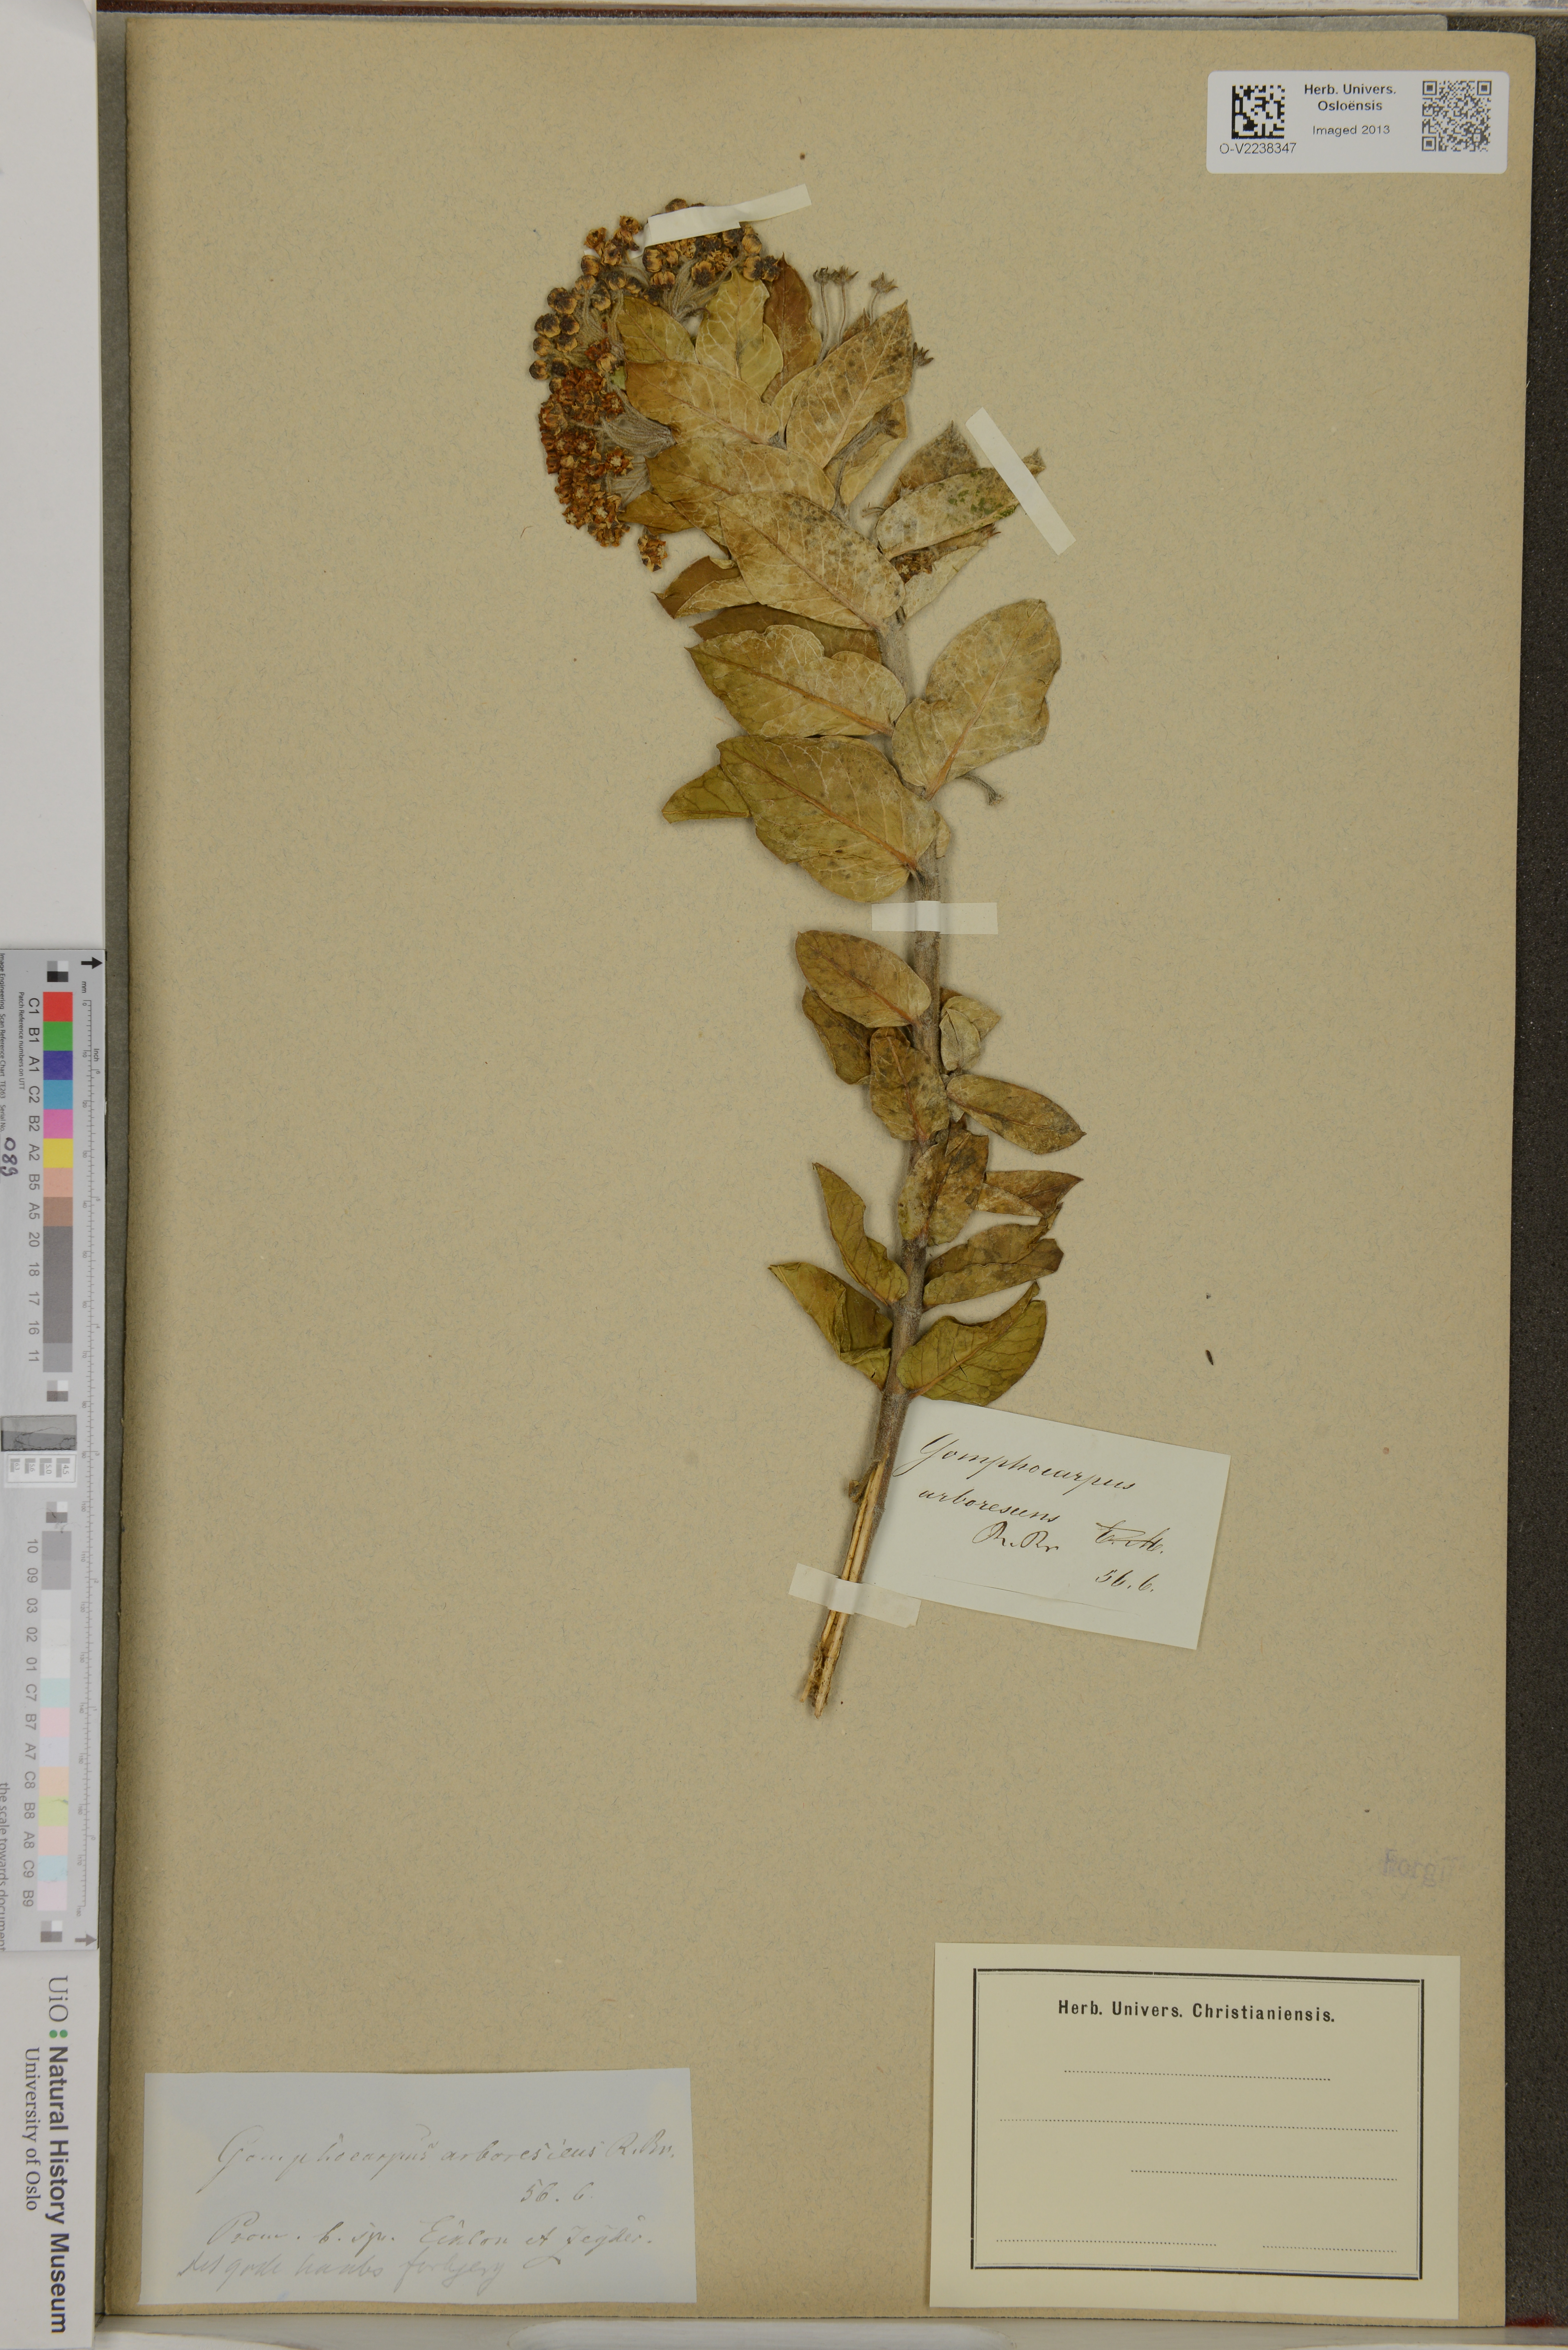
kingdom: Plantae
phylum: Tracheophyta
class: Magnoliopsida
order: Gentianales
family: Apocynaceae
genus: Gomphocarpus
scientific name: Gomphocarpus cancellatus
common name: Wild cotton
